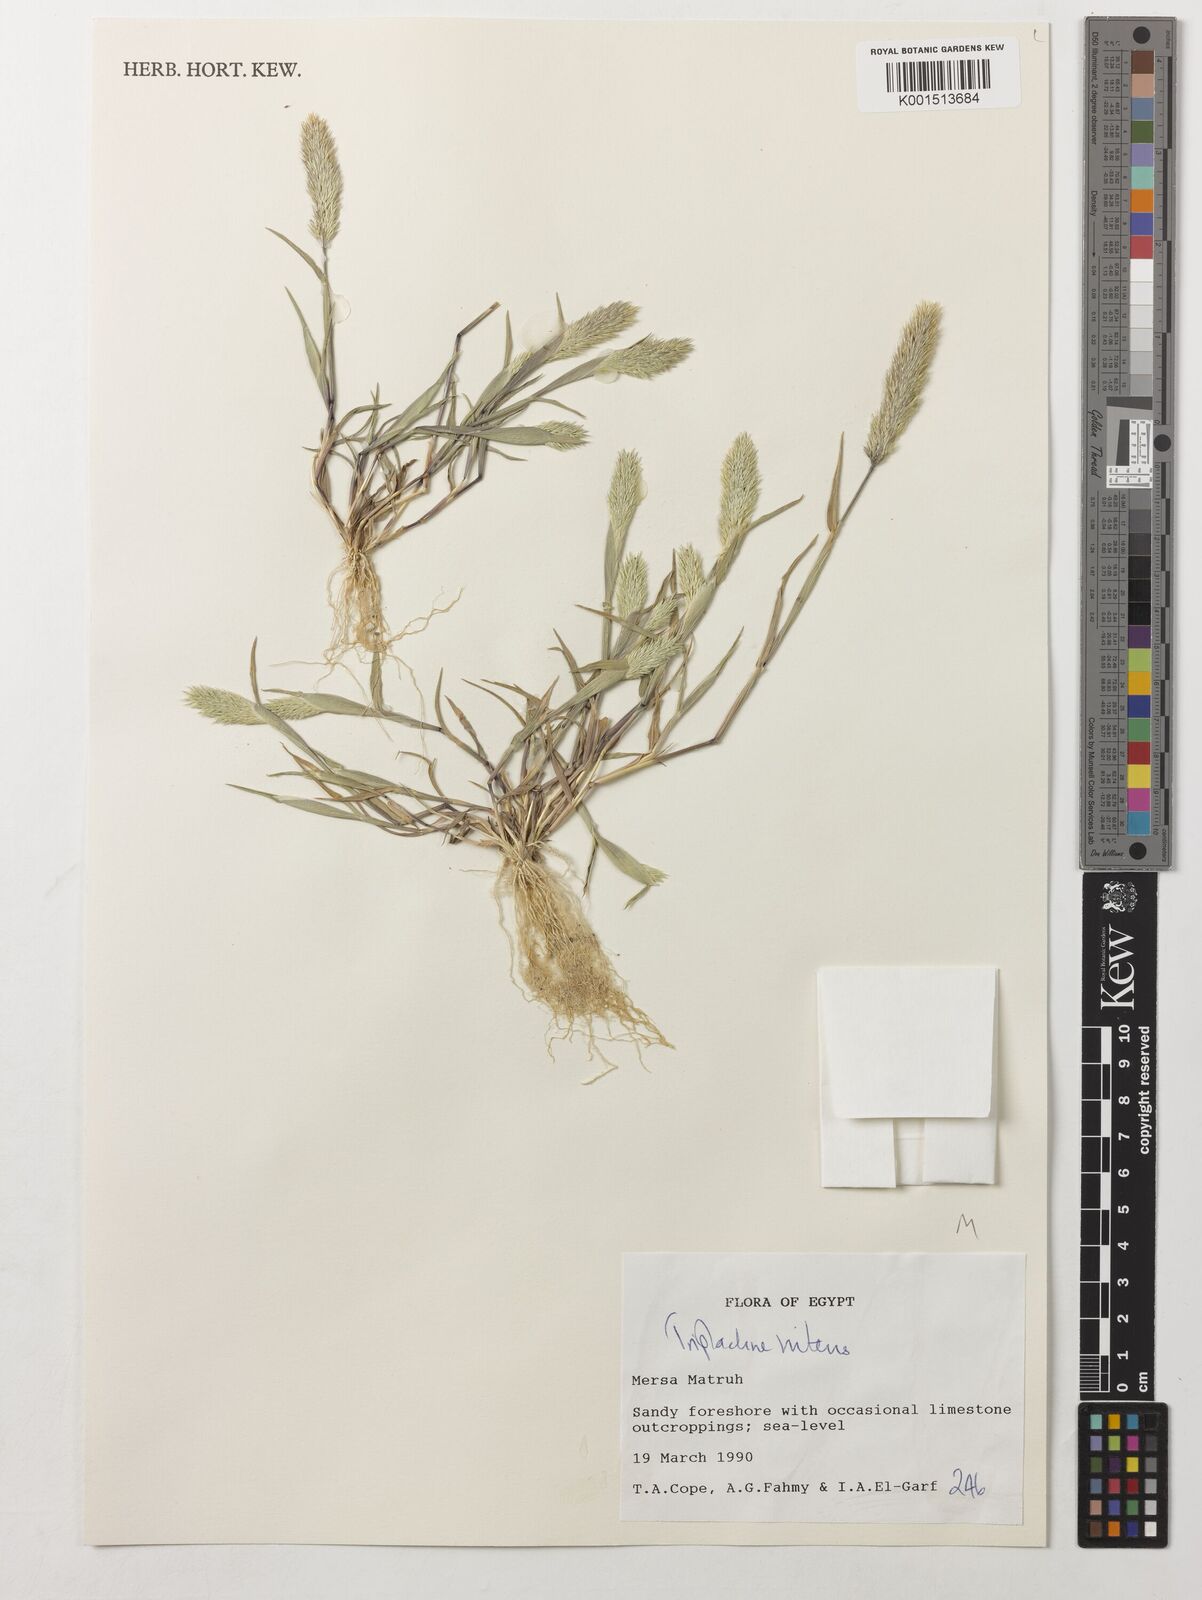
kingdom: Plantae
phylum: Tracheophyta
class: Liliopsida
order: Poales
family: Poaceae
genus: Triplachne
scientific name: Triplachne nitens
